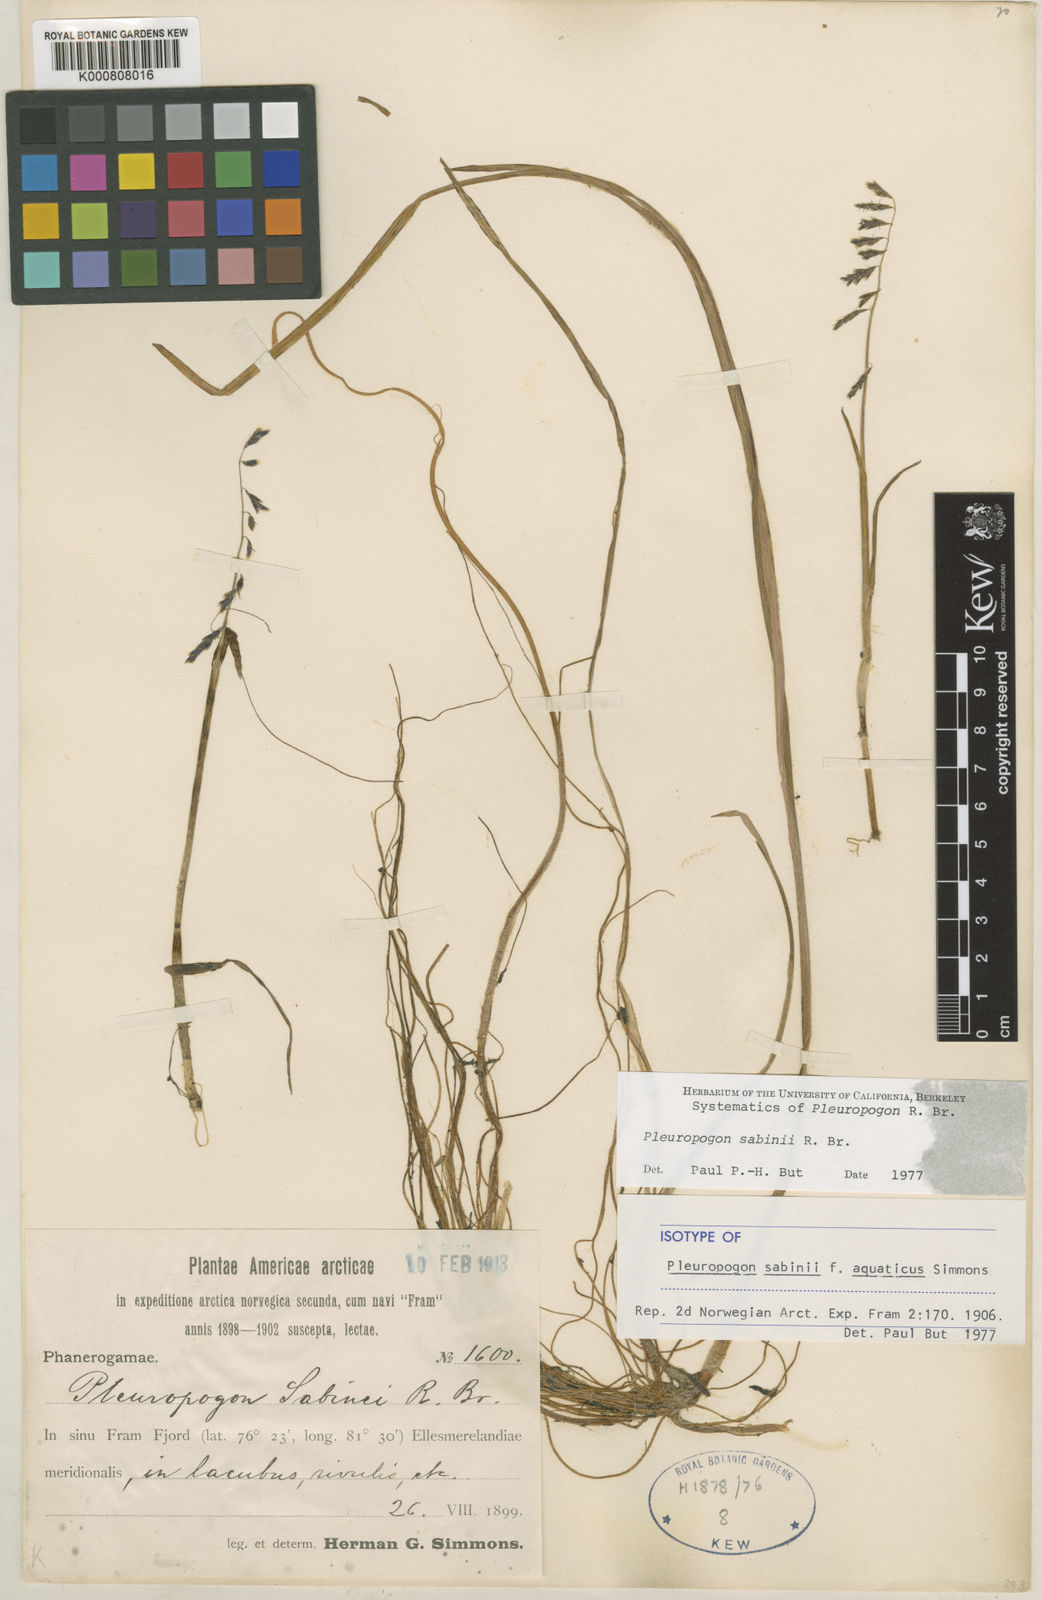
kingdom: Plantae
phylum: Tracheophyta
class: Liliopsida
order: Poales
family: Poaceae
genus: Pleuropogon
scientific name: Pleuropogon sabinei
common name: Sabine's false semaphoregrass
